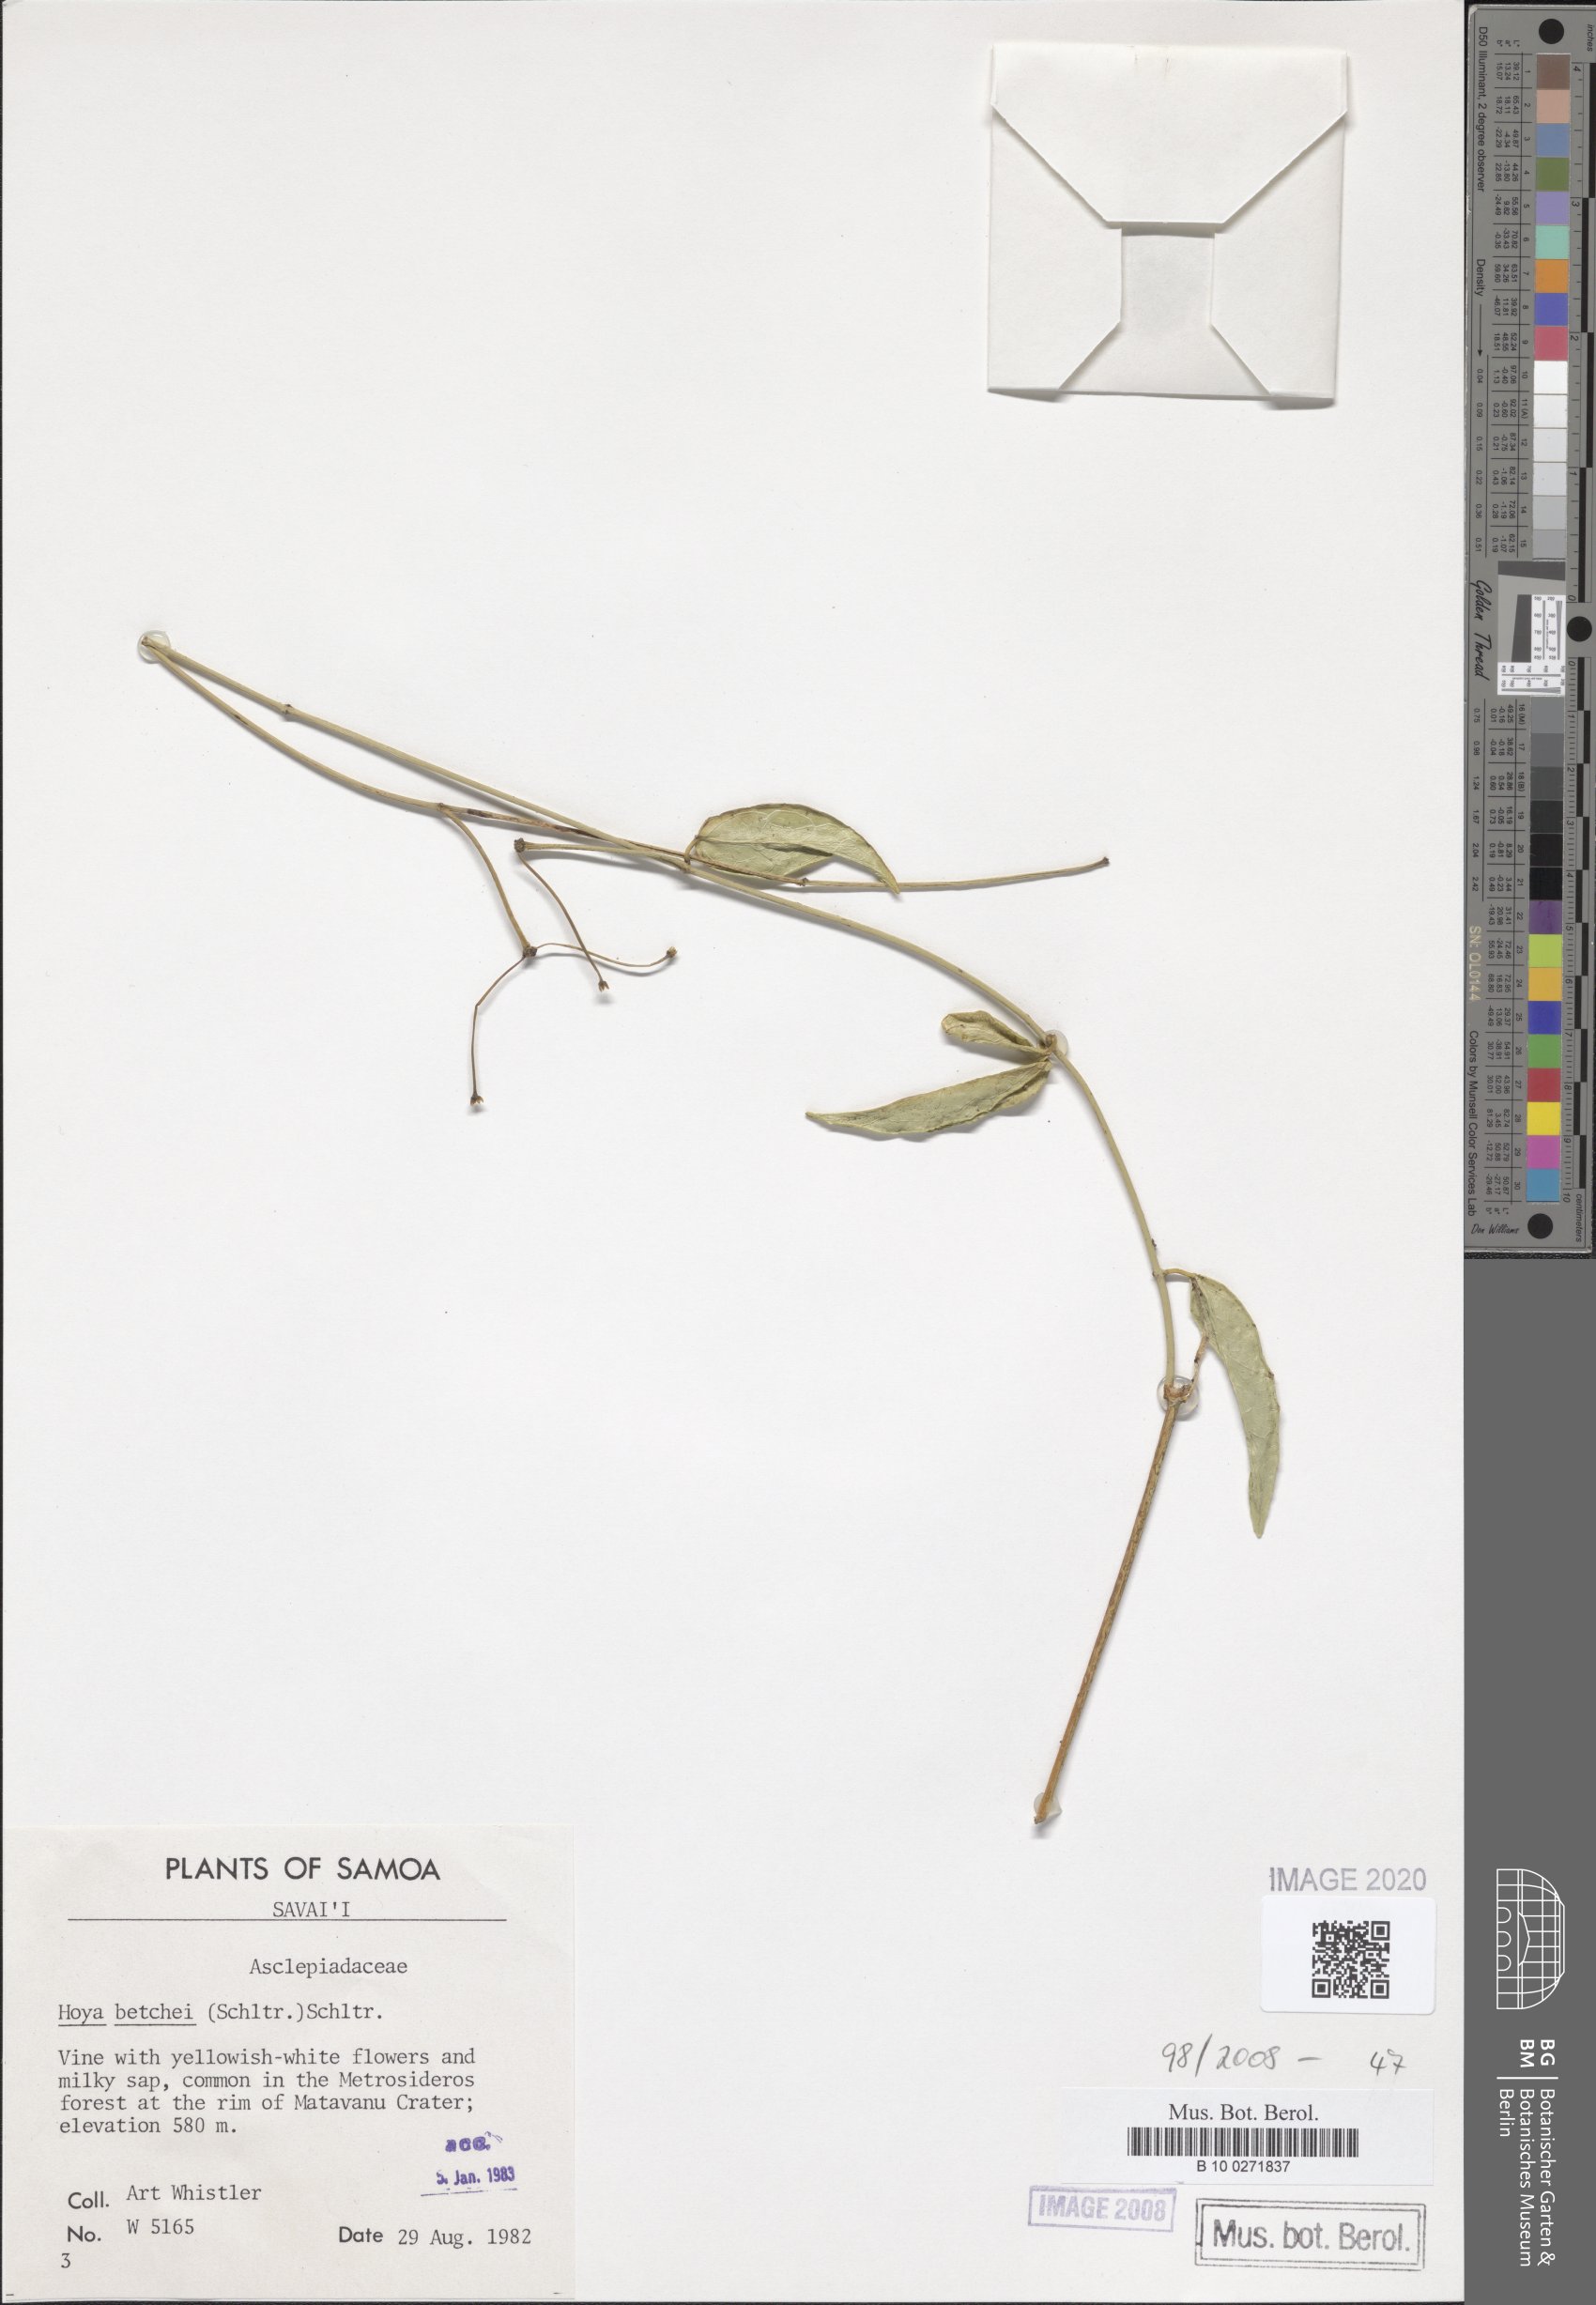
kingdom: Plantae
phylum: Tracheophyta
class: Magnoliopsida
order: Gentianales
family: Apocynaceae
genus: Hoya
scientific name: Hoya betchei
